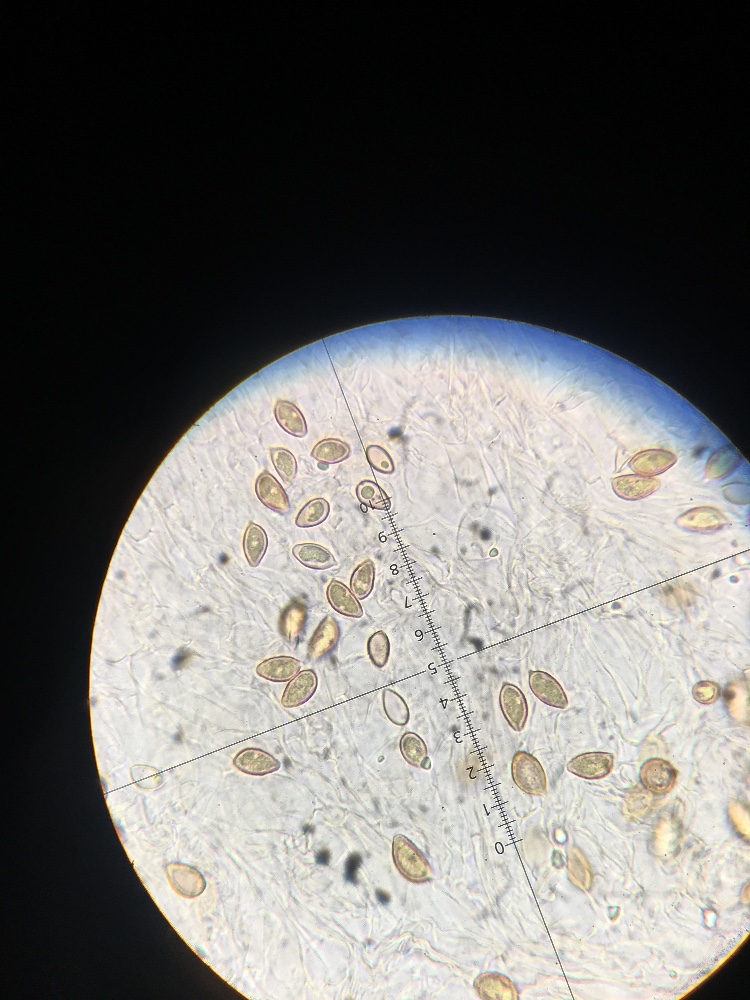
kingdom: Fungi
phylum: Basidiomycota
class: Agaricomycetes
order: Agaricales
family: Hymenogastraceae
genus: Hebeloma
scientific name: Hebeloma
